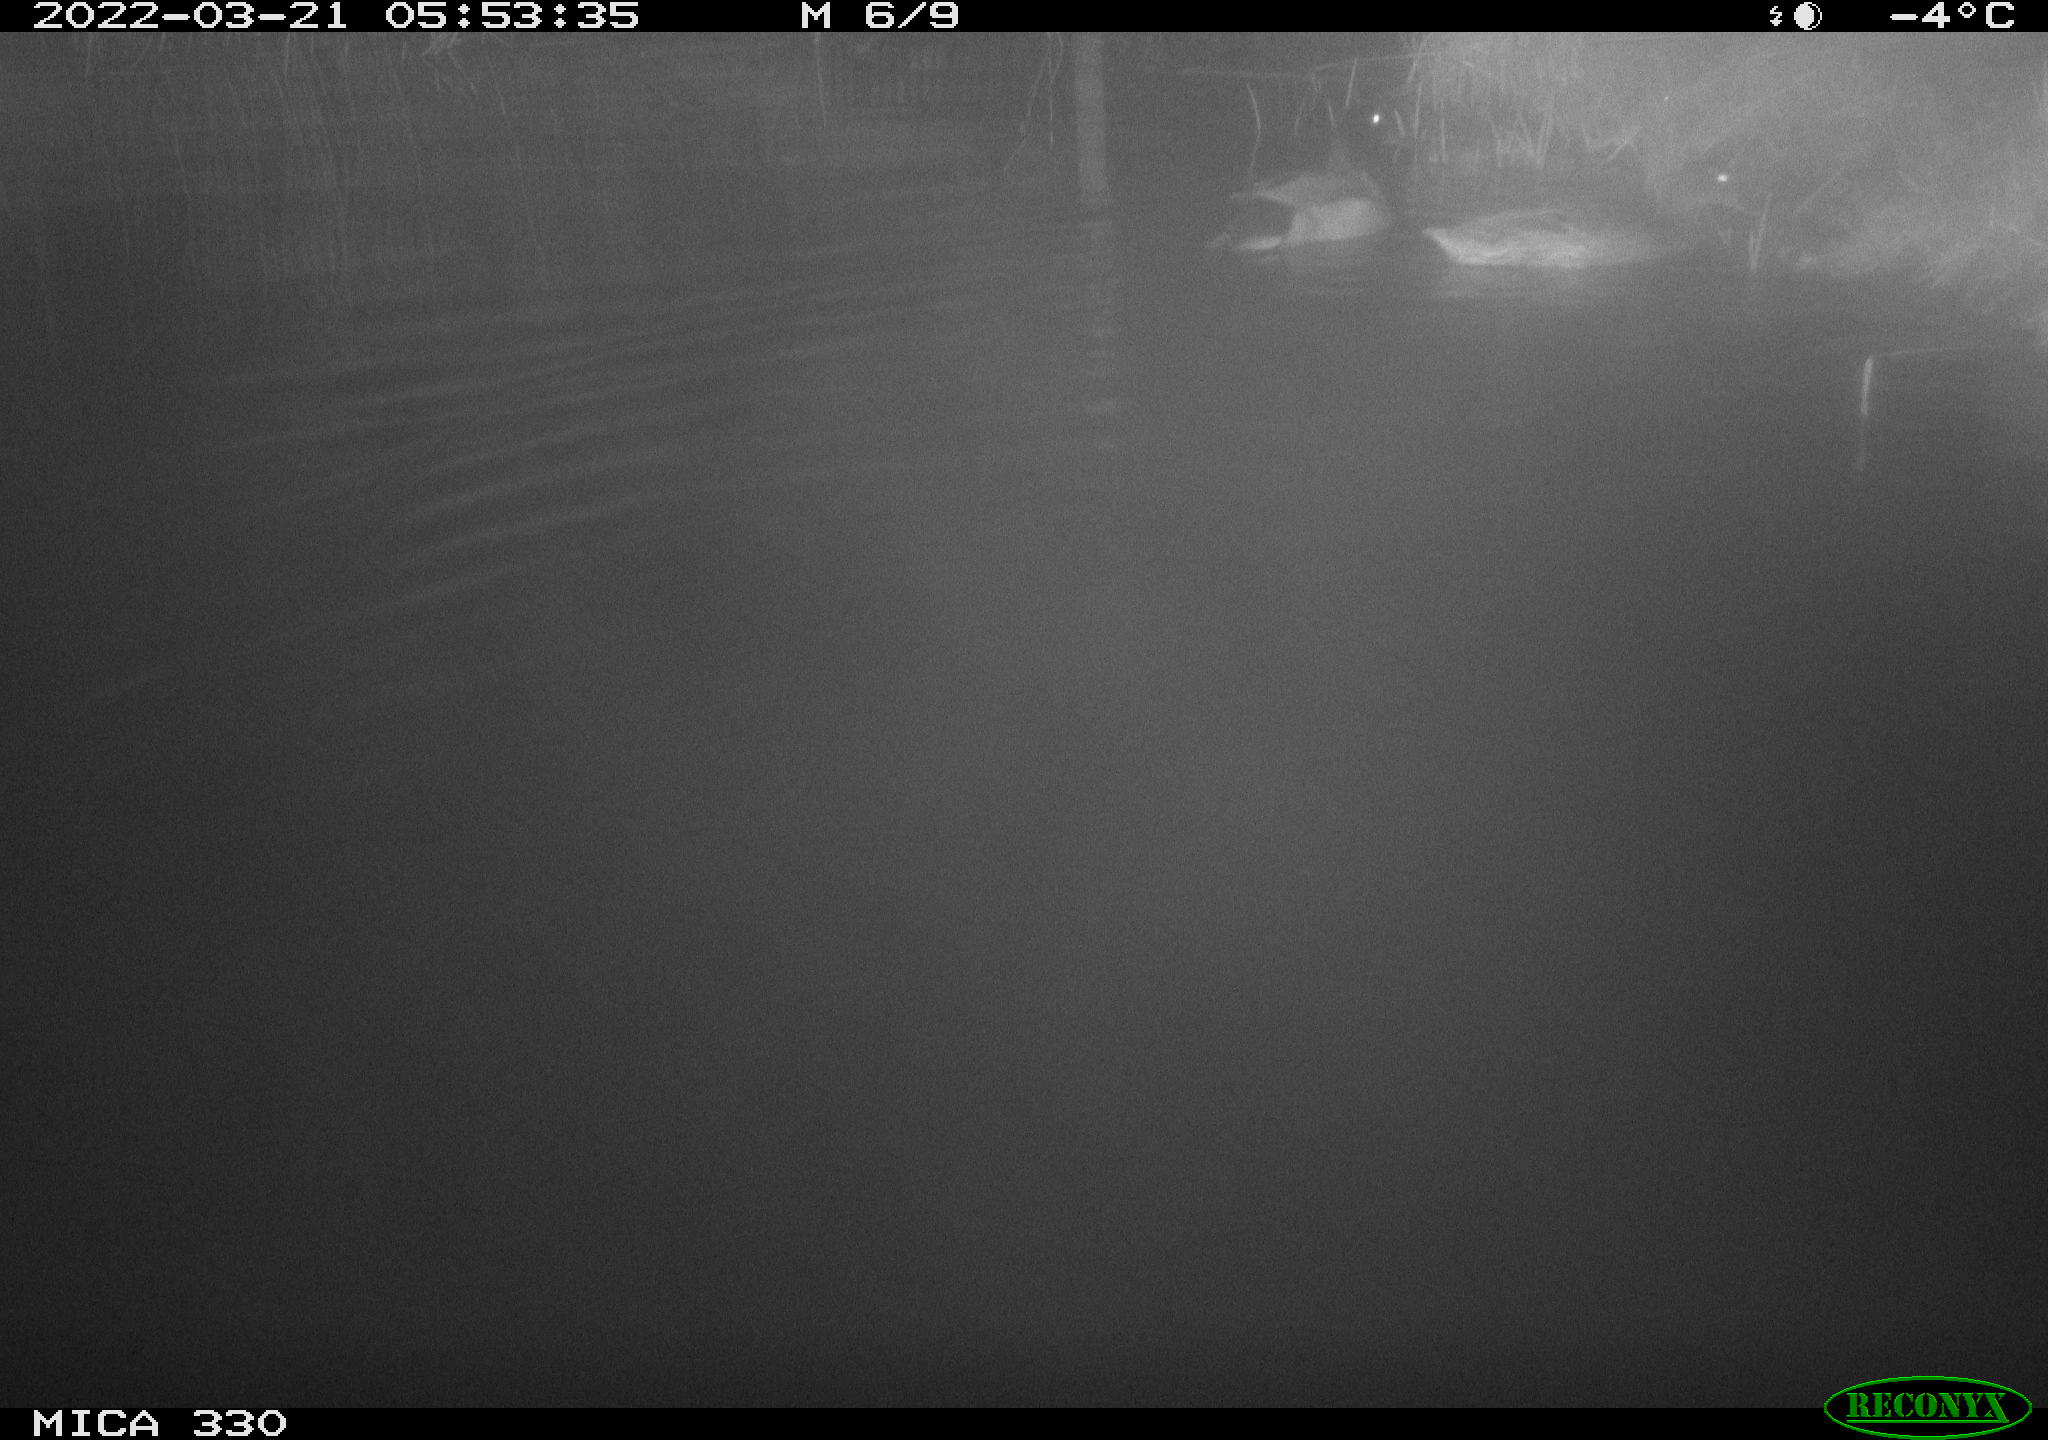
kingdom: Animalia
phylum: Chordata
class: Aves
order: Anseriformes
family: Anatidae
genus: Anas
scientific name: Anas platyrhynchos
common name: Mallard
